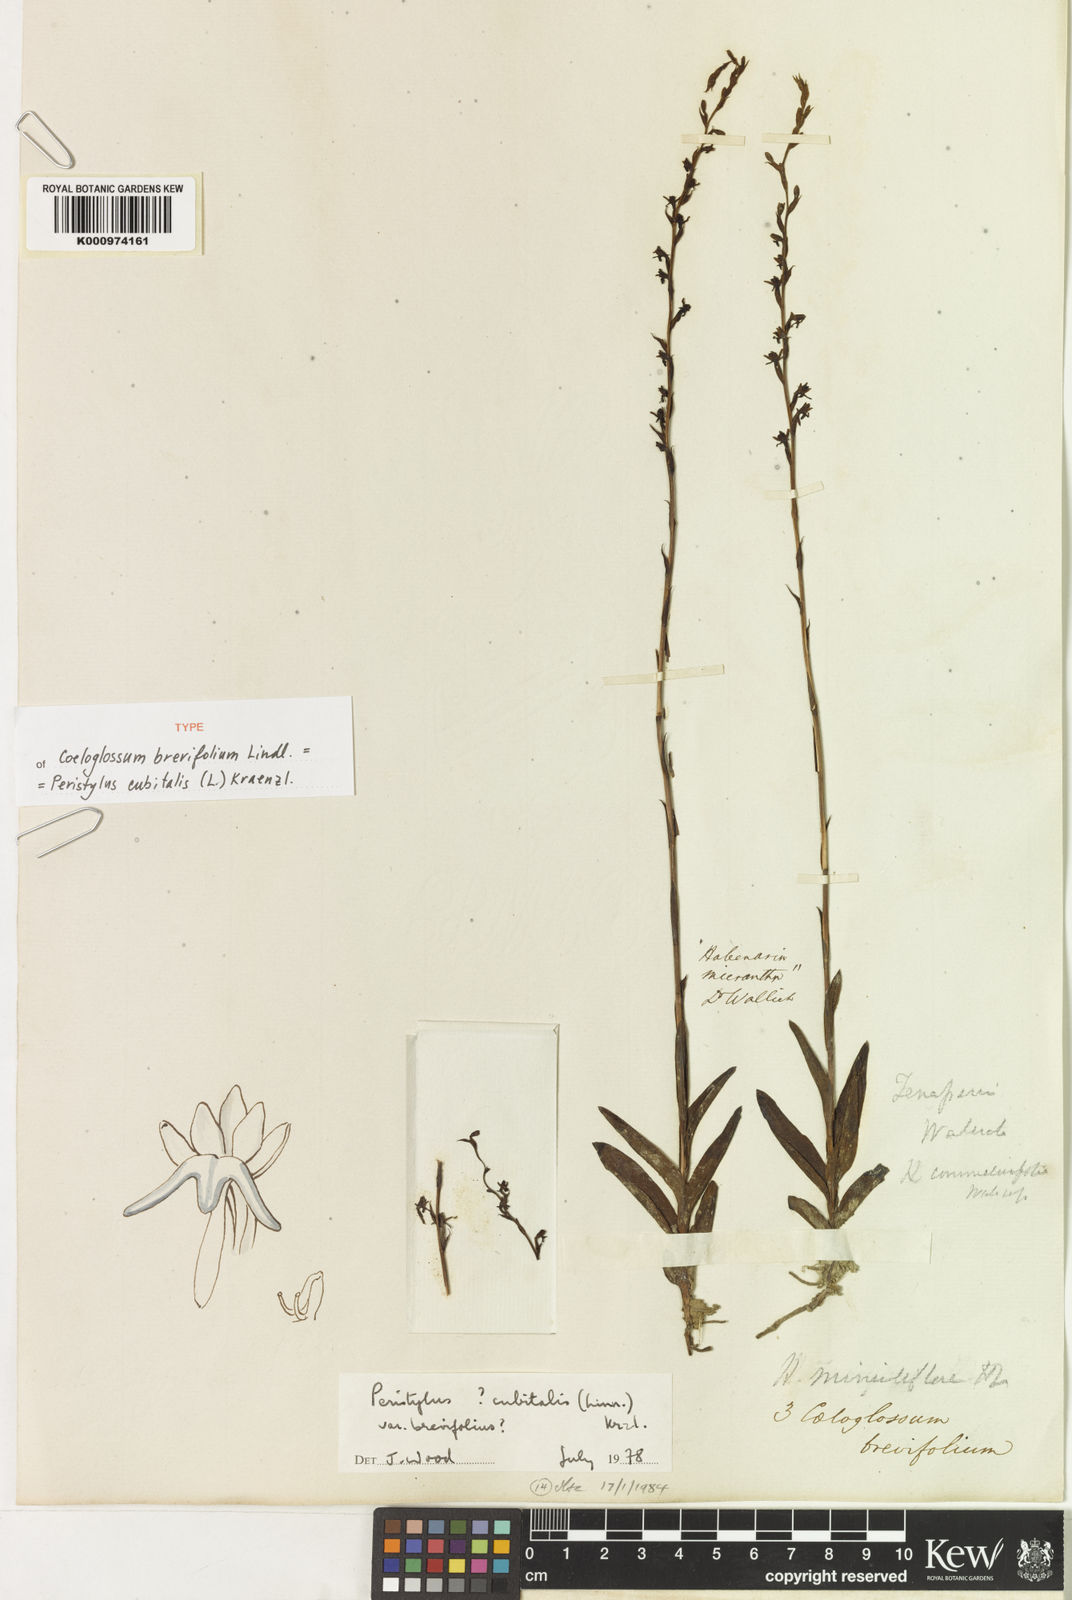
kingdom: Plantae
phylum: Tracheophyta
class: Liliopsida
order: Asparagales
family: Orchidaceae
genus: Peristylus
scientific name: Peristylus cubitalis
